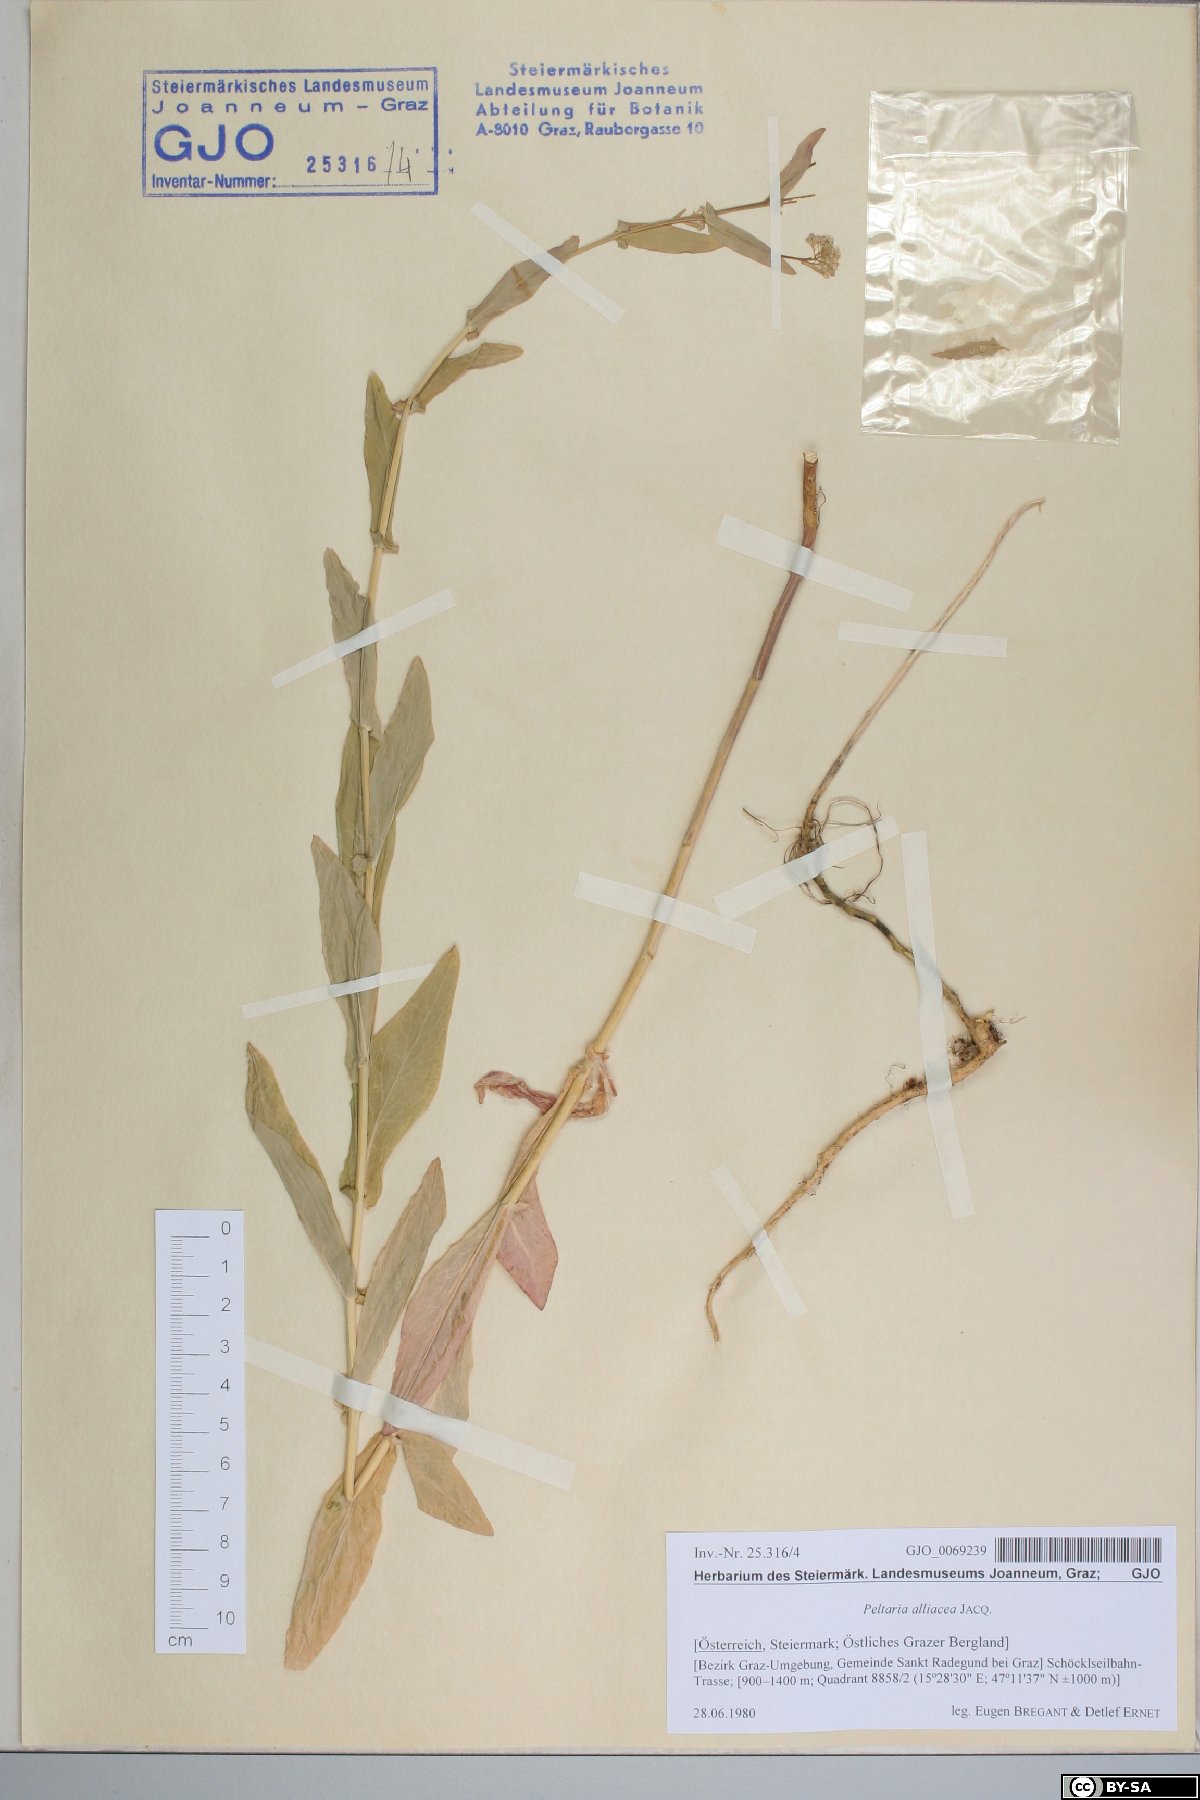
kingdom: Plantae
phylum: Tracheophyta
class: Magnoliopsida
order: Brassicales
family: Brassicaceae
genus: Peltaria
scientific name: Peltaria alliacea
